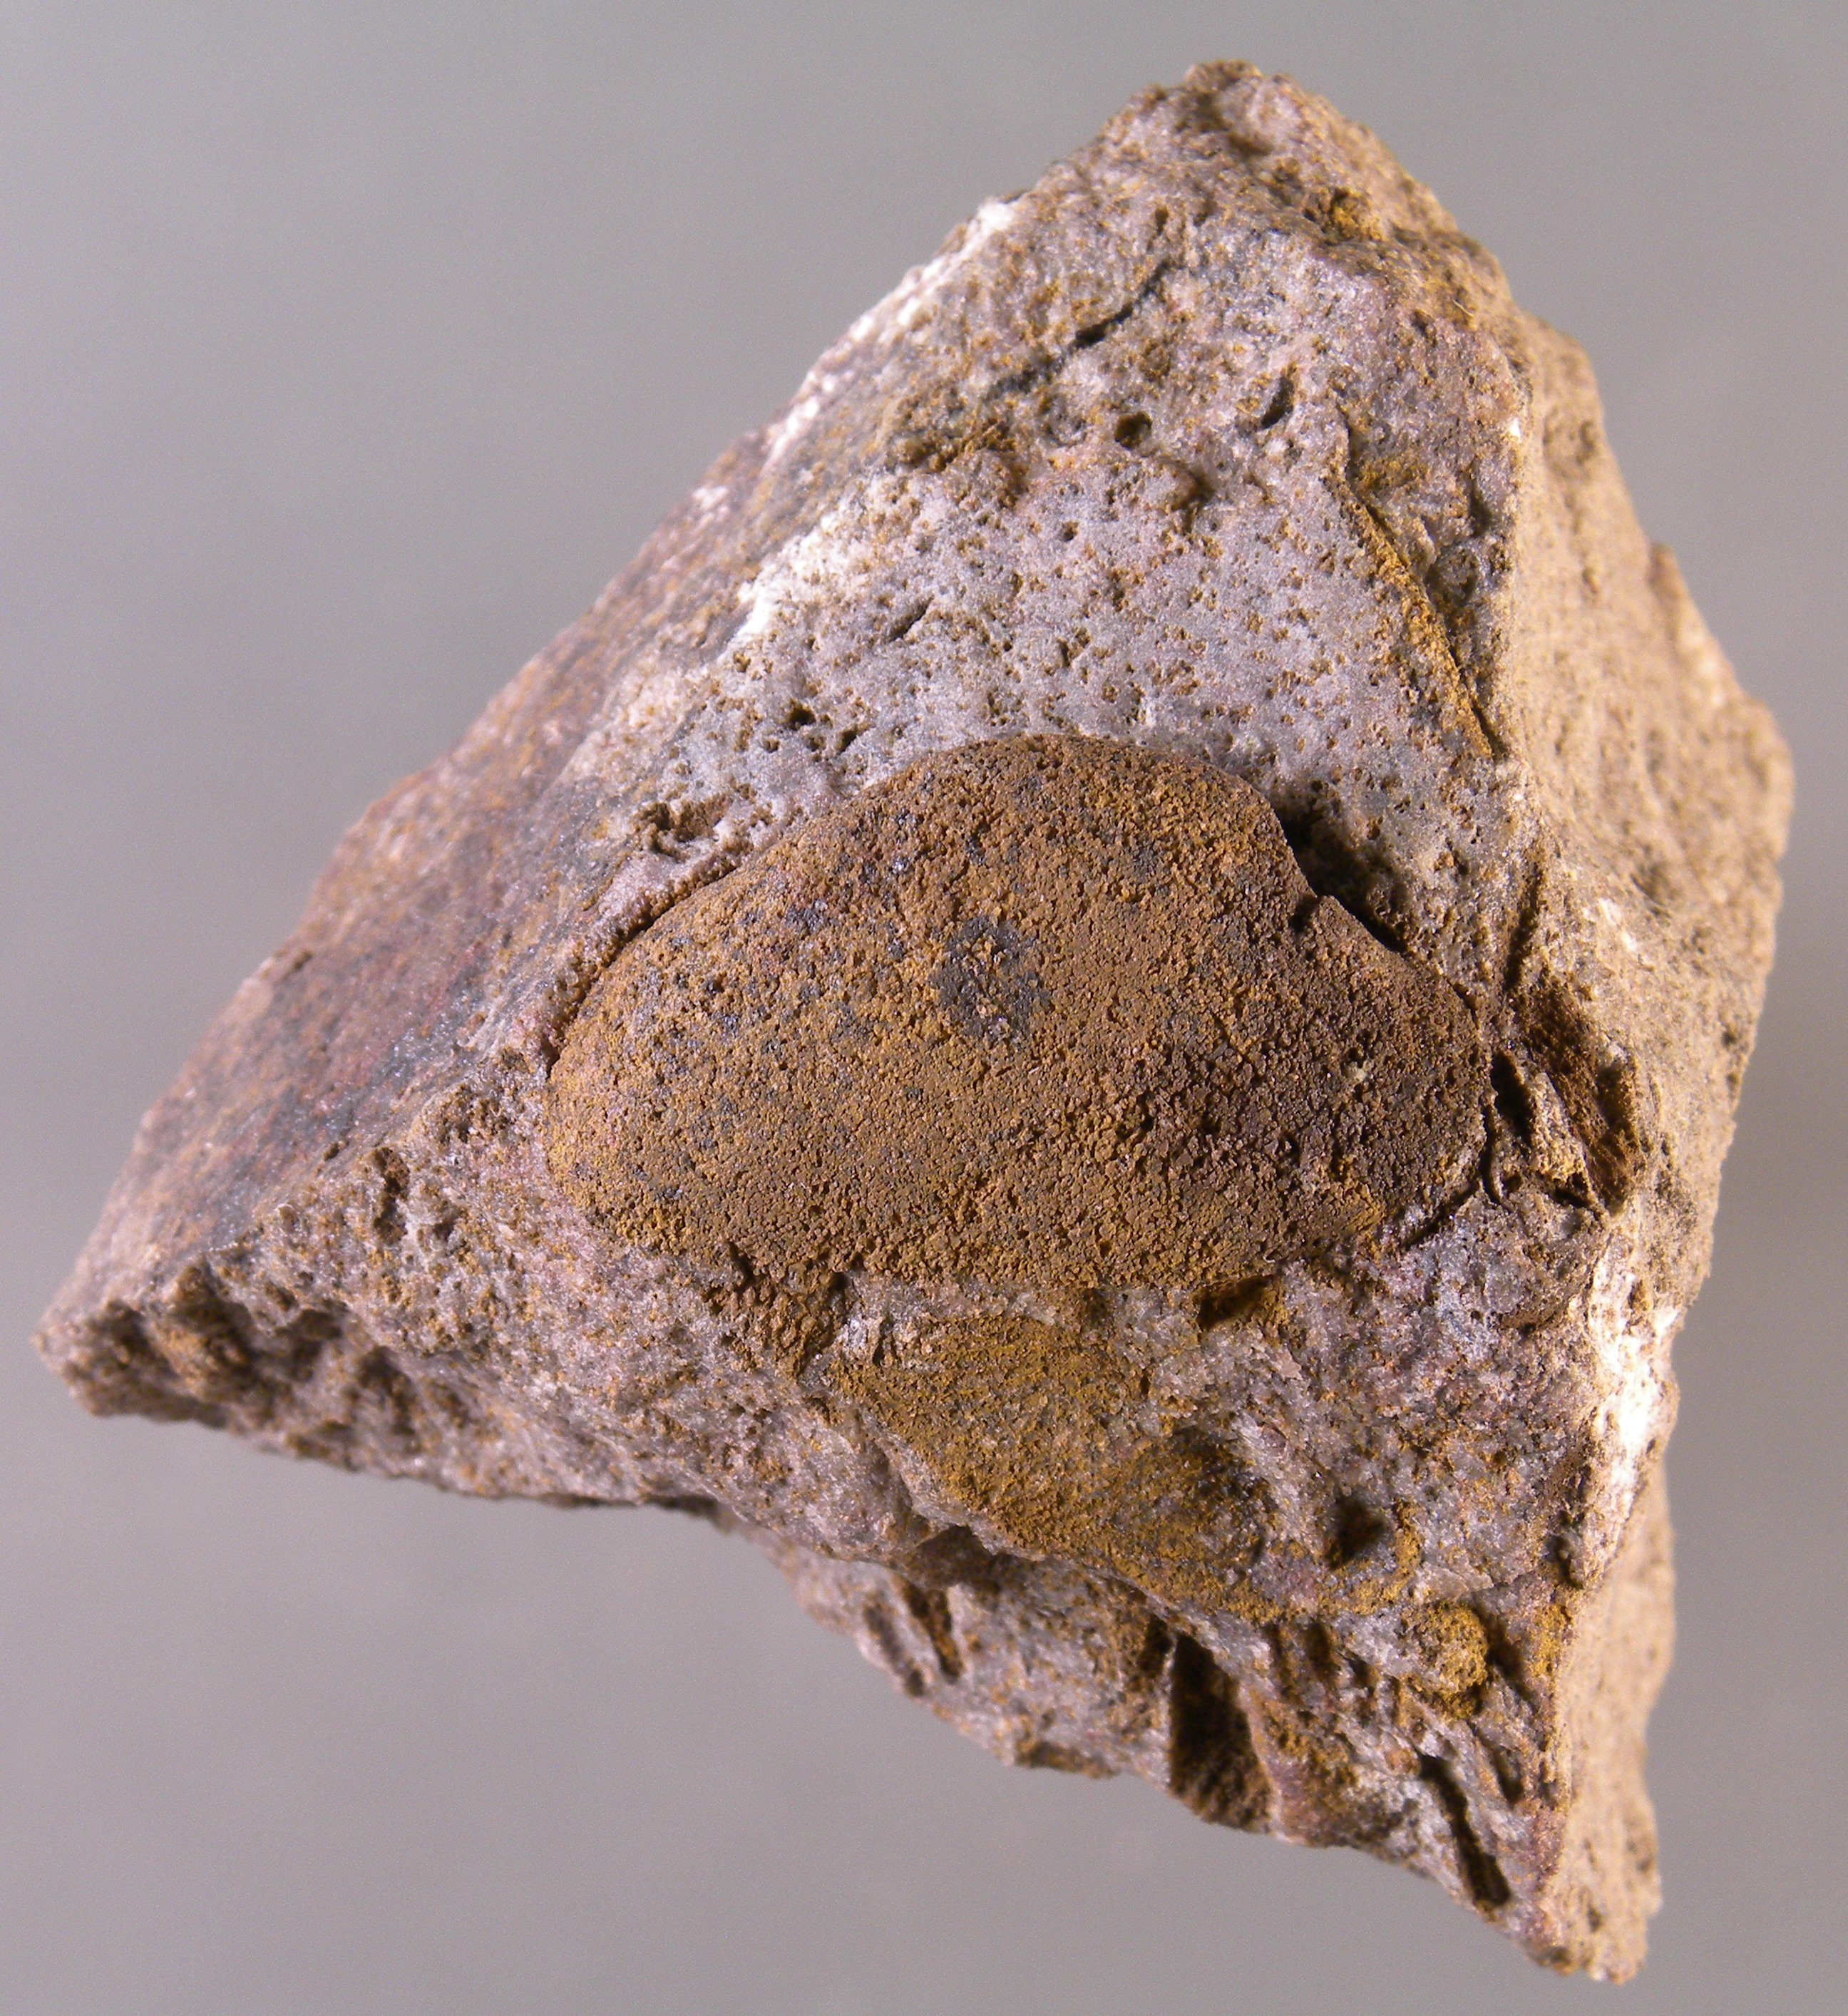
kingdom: Animalia
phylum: Mollusca
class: Bivalvia
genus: Rhenanomya
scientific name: Rhenanomya
